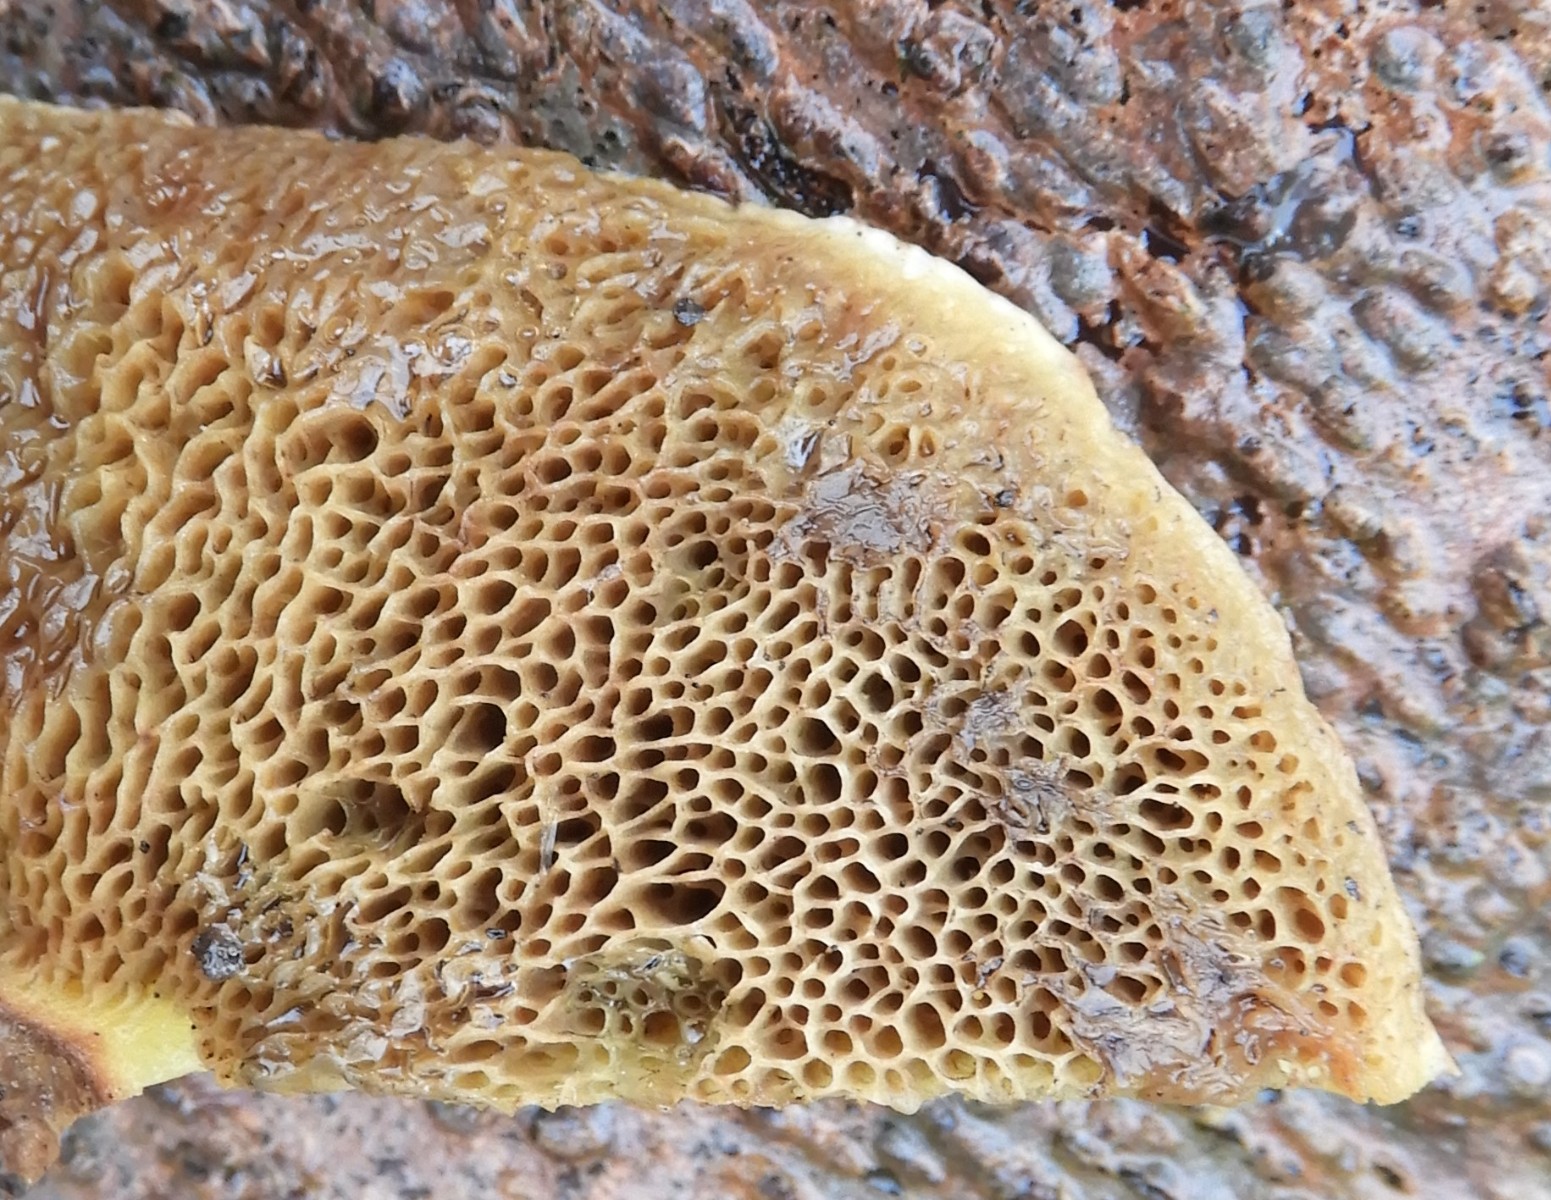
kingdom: Fungi
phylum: Basidiomycota
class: Agaricomycetes
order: Boletales
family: Boletaceae
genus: Xerocomellus
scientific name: Xerocomellus porosporus
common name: hvidsprukken rørhat
